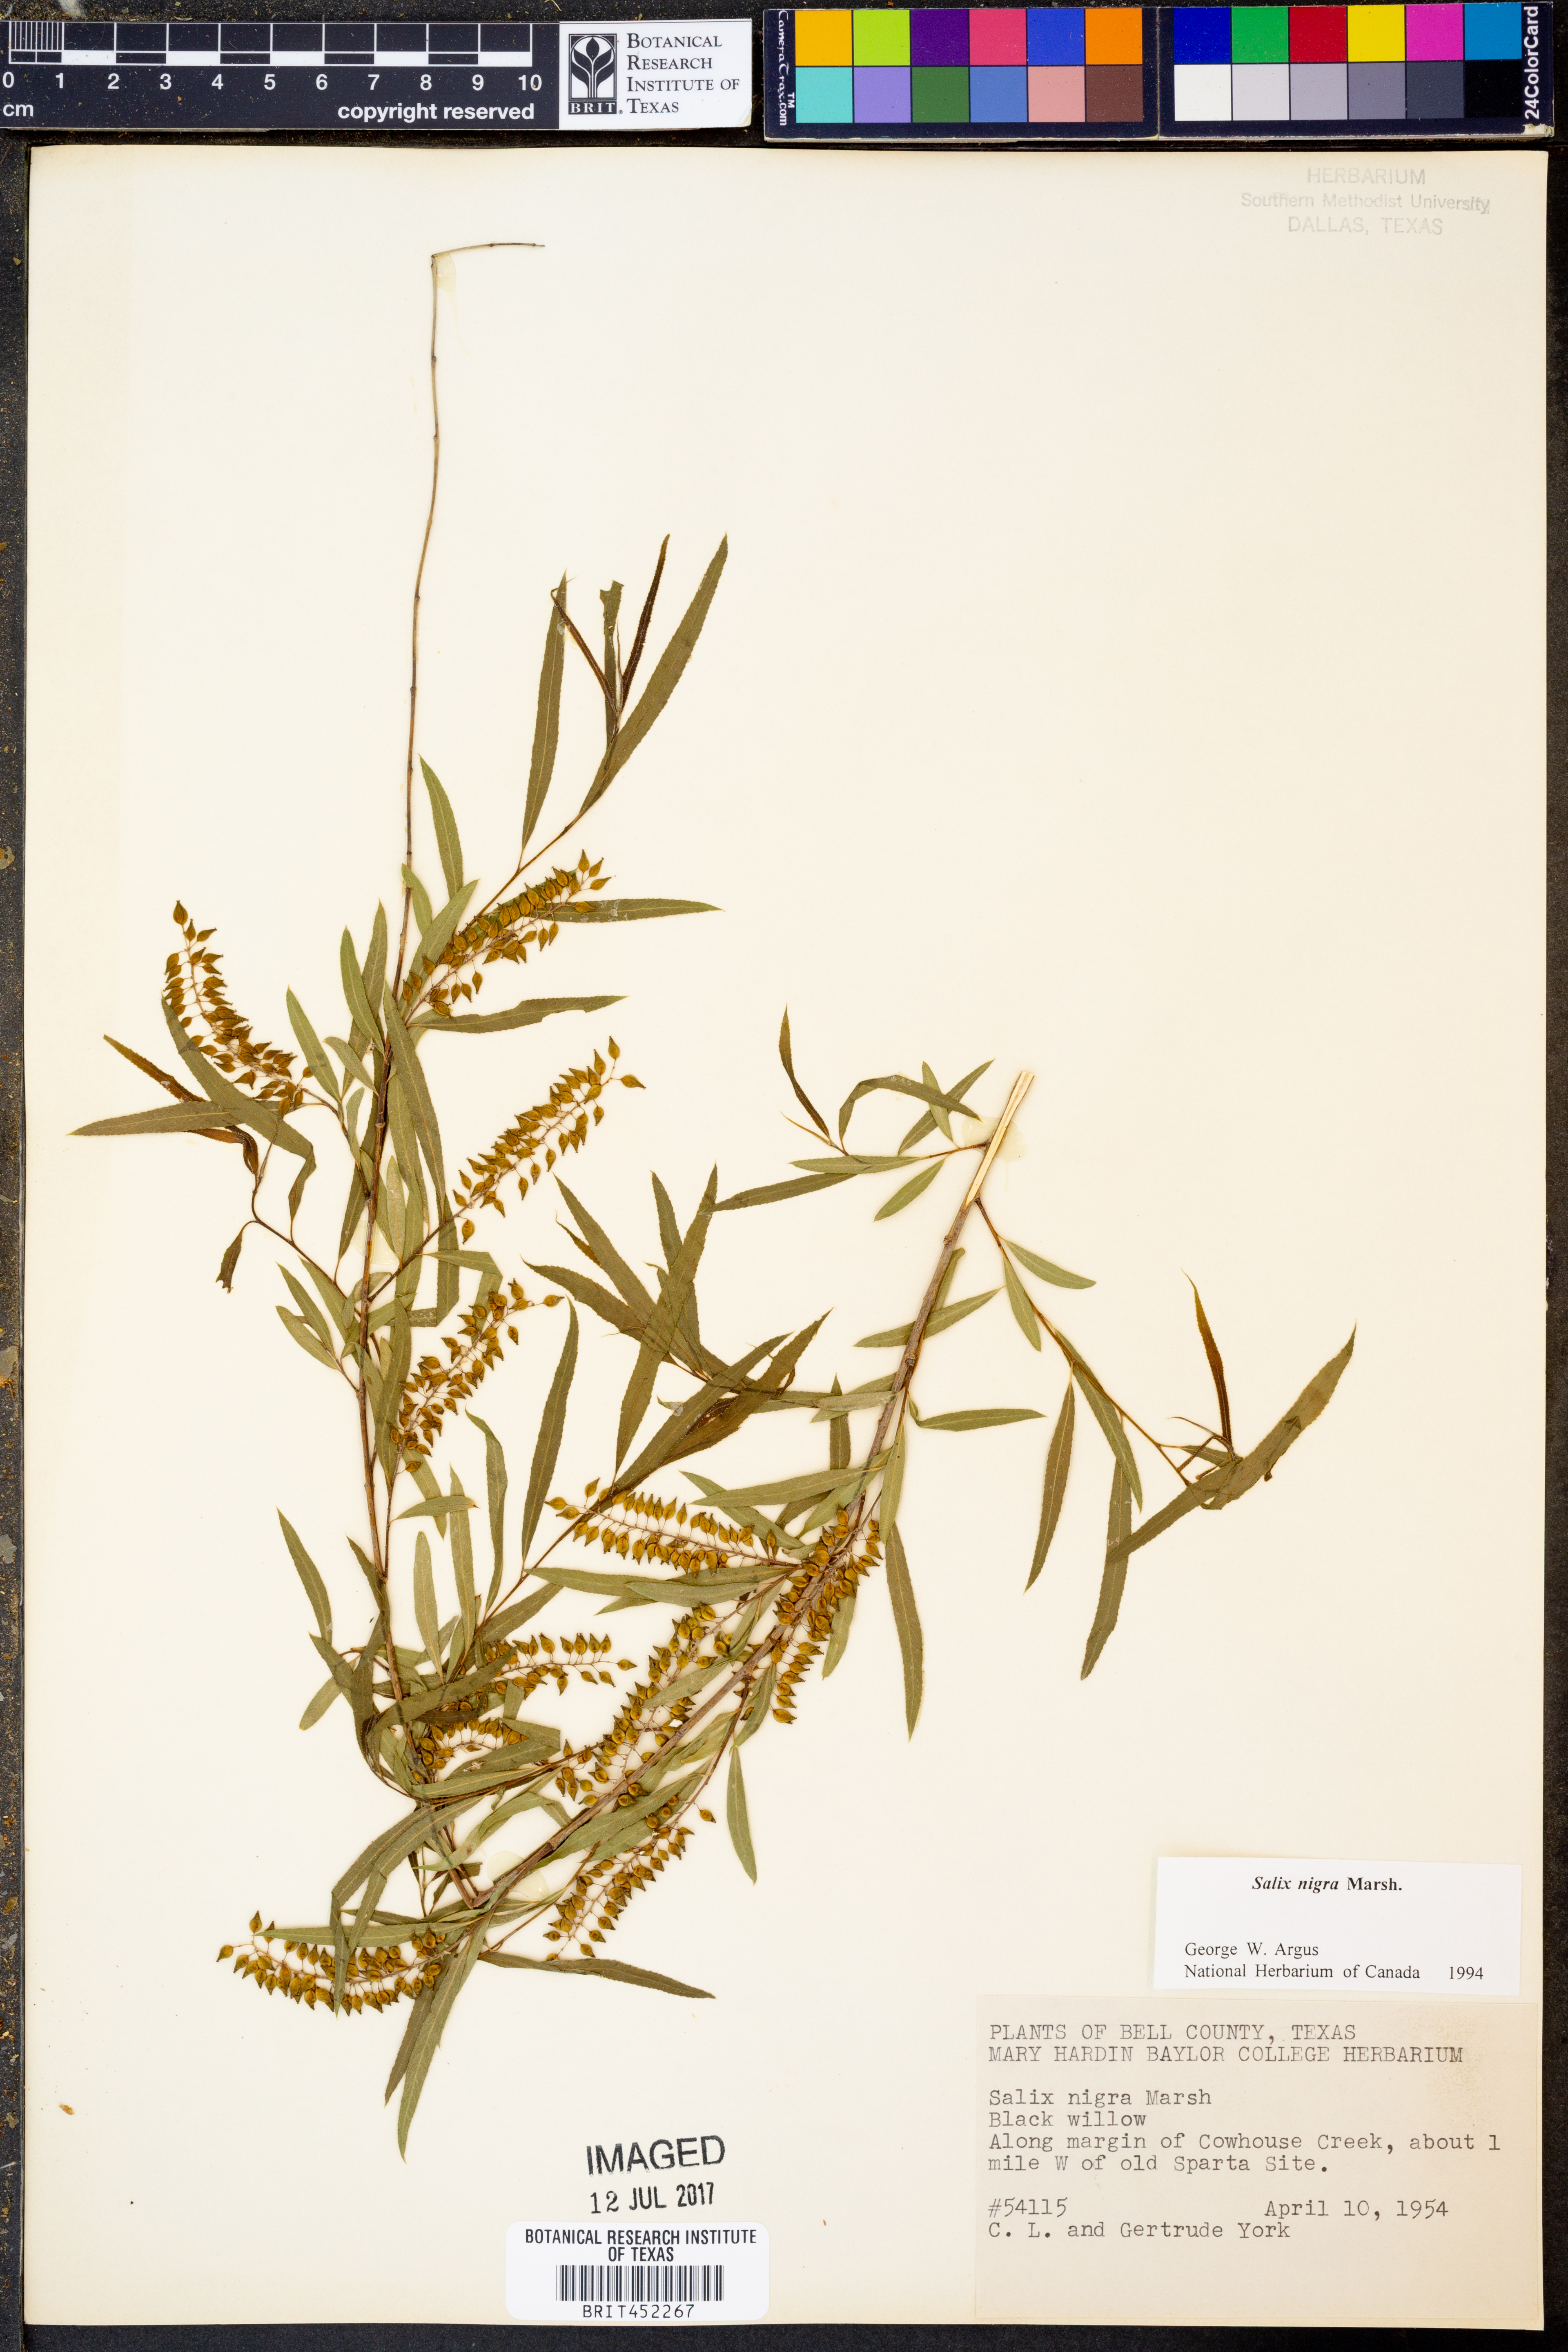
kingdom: Plantae
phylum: Tracheophyta
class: Magnoliopsida
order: Malpighiales
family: Salicaceae
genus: Salix
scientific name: Salix nigra
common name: Black willow
